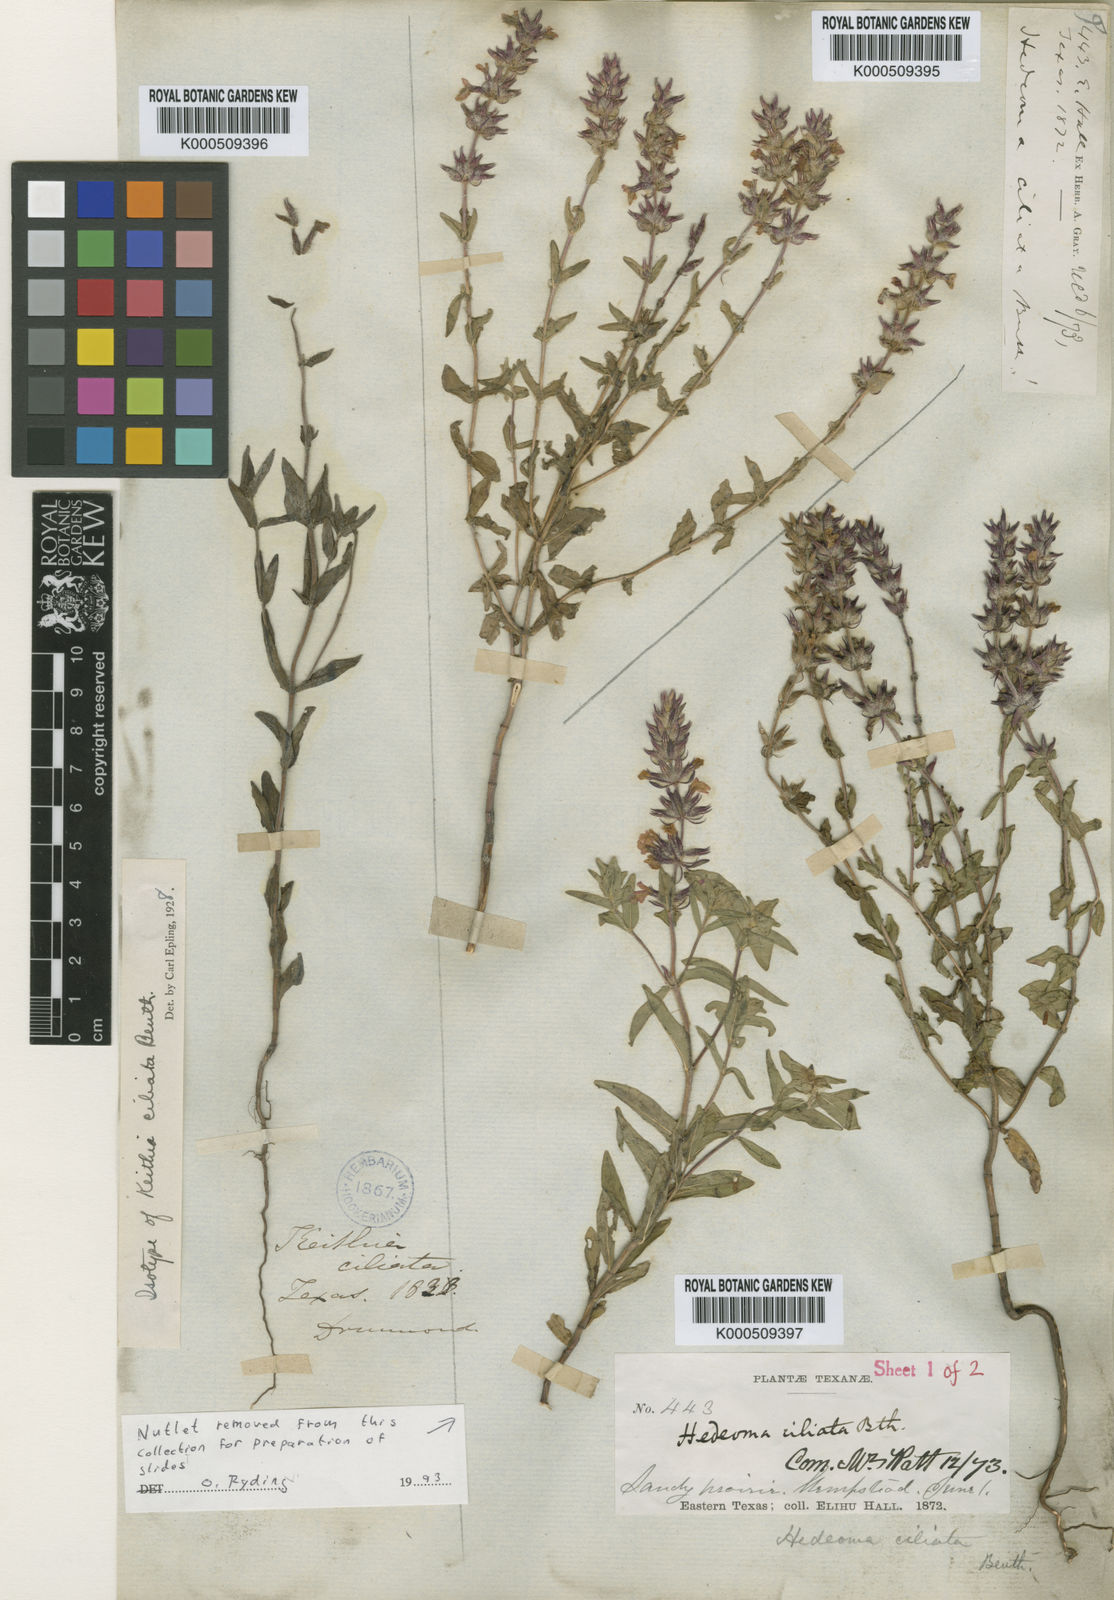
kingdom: Plantae
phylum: Tracheophyta
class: Magnoliopsida
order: Lamiales
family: Lamiaceae
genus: Rhododon
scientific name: Rhododon ciliatus
